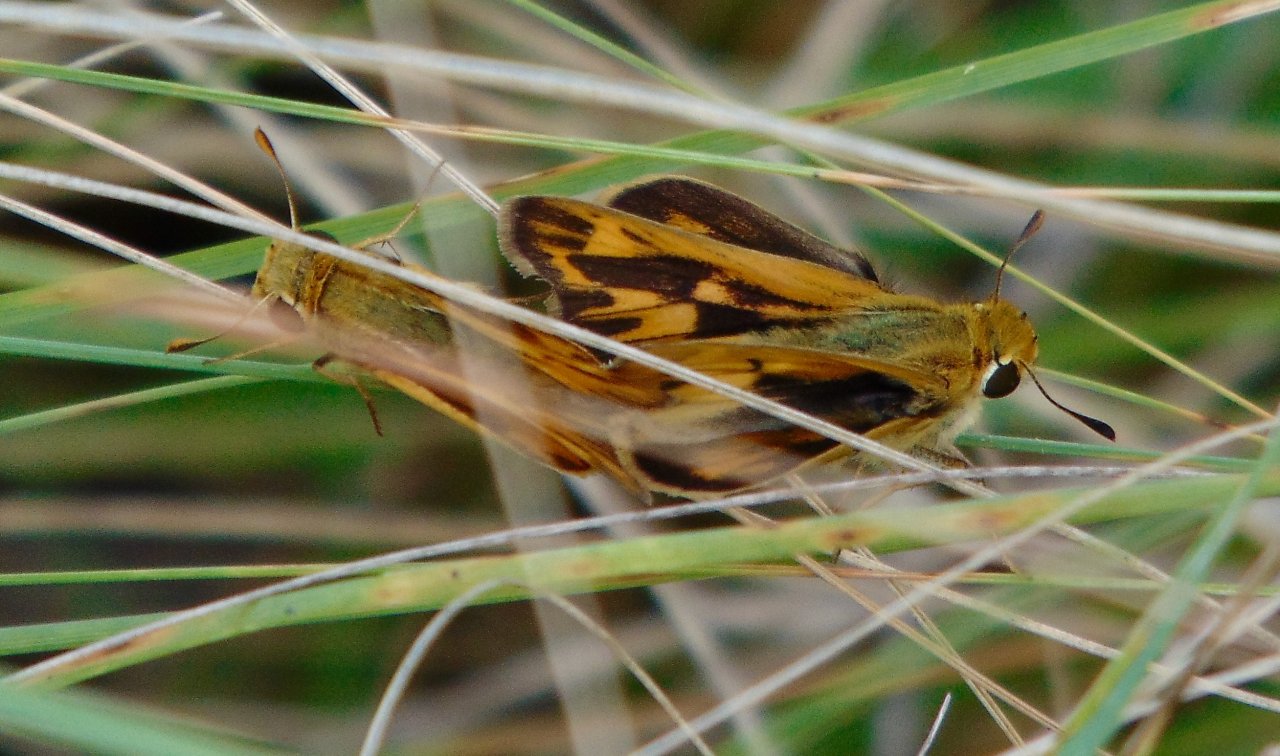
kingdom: Animalia
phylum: Arthropoda
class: Insecta
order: Lepidoptera
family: Hesperiidae
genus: Hylephila
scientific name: Hylephila phyleus
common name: Fiery Skipper
